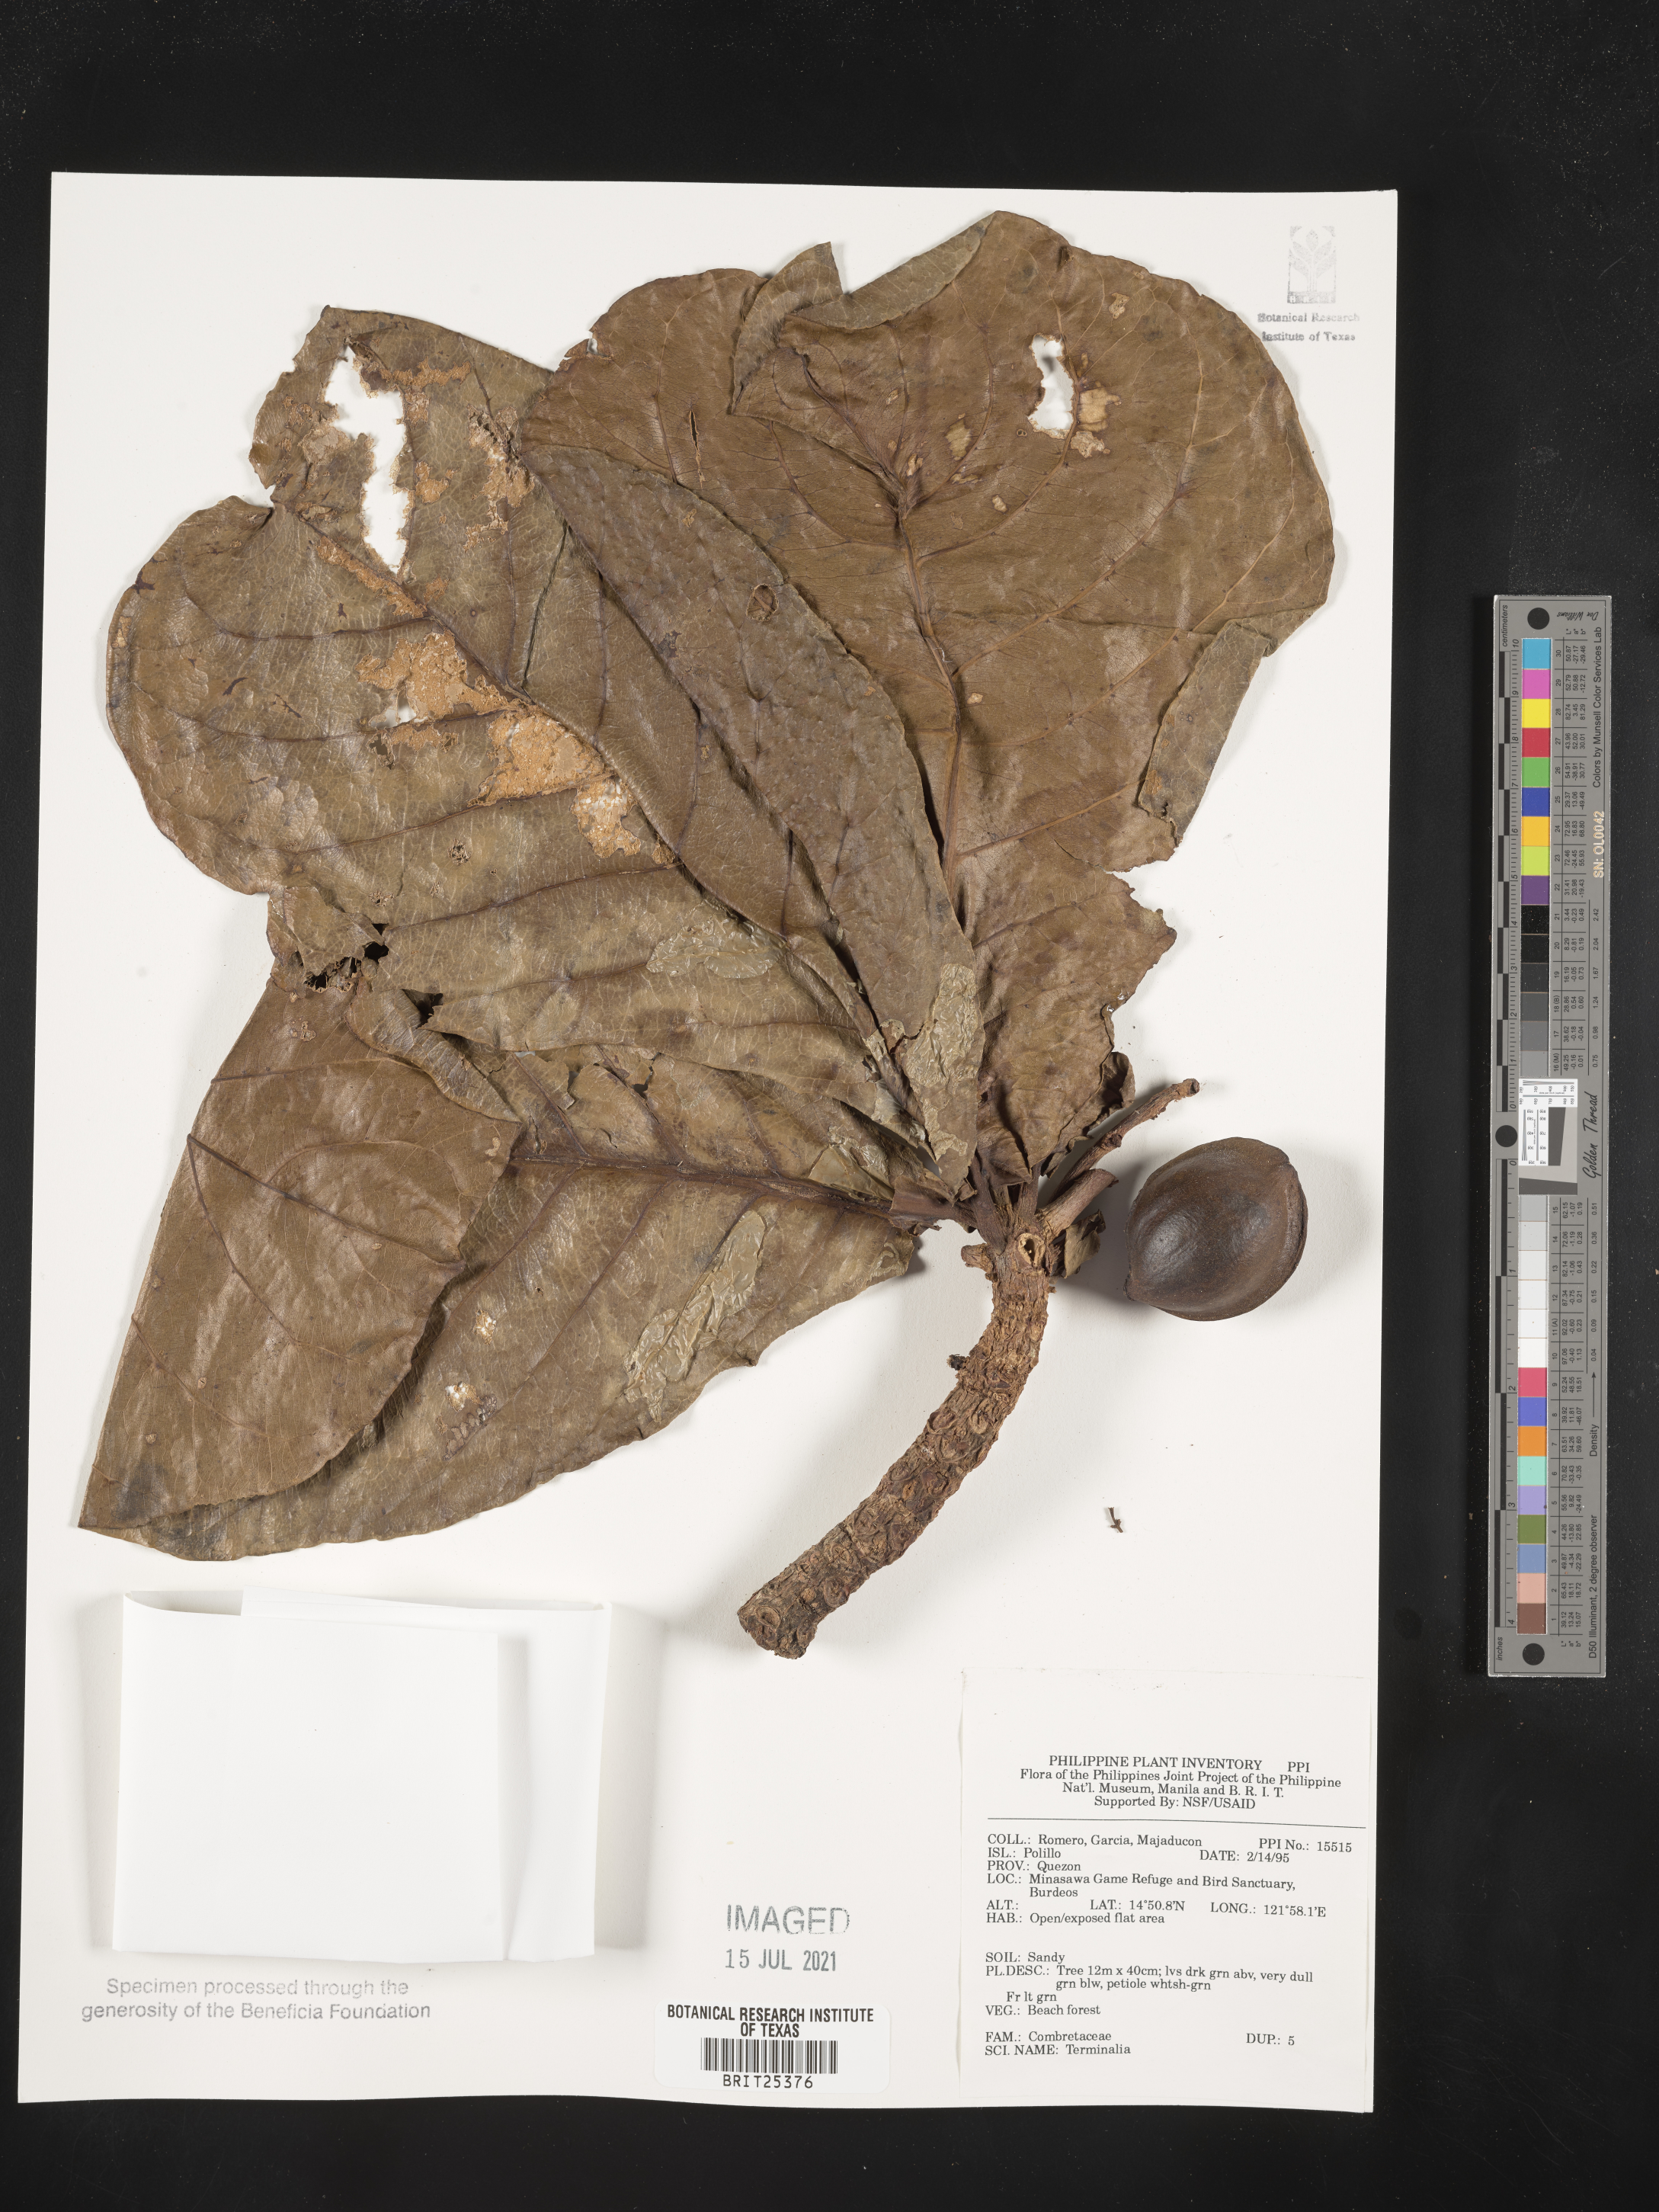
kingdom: Plantae
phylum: Tracheophyta
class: Magnoliopsida
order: Myrtales
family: Combretaceae
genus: Terminalia
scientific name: Terminalia
